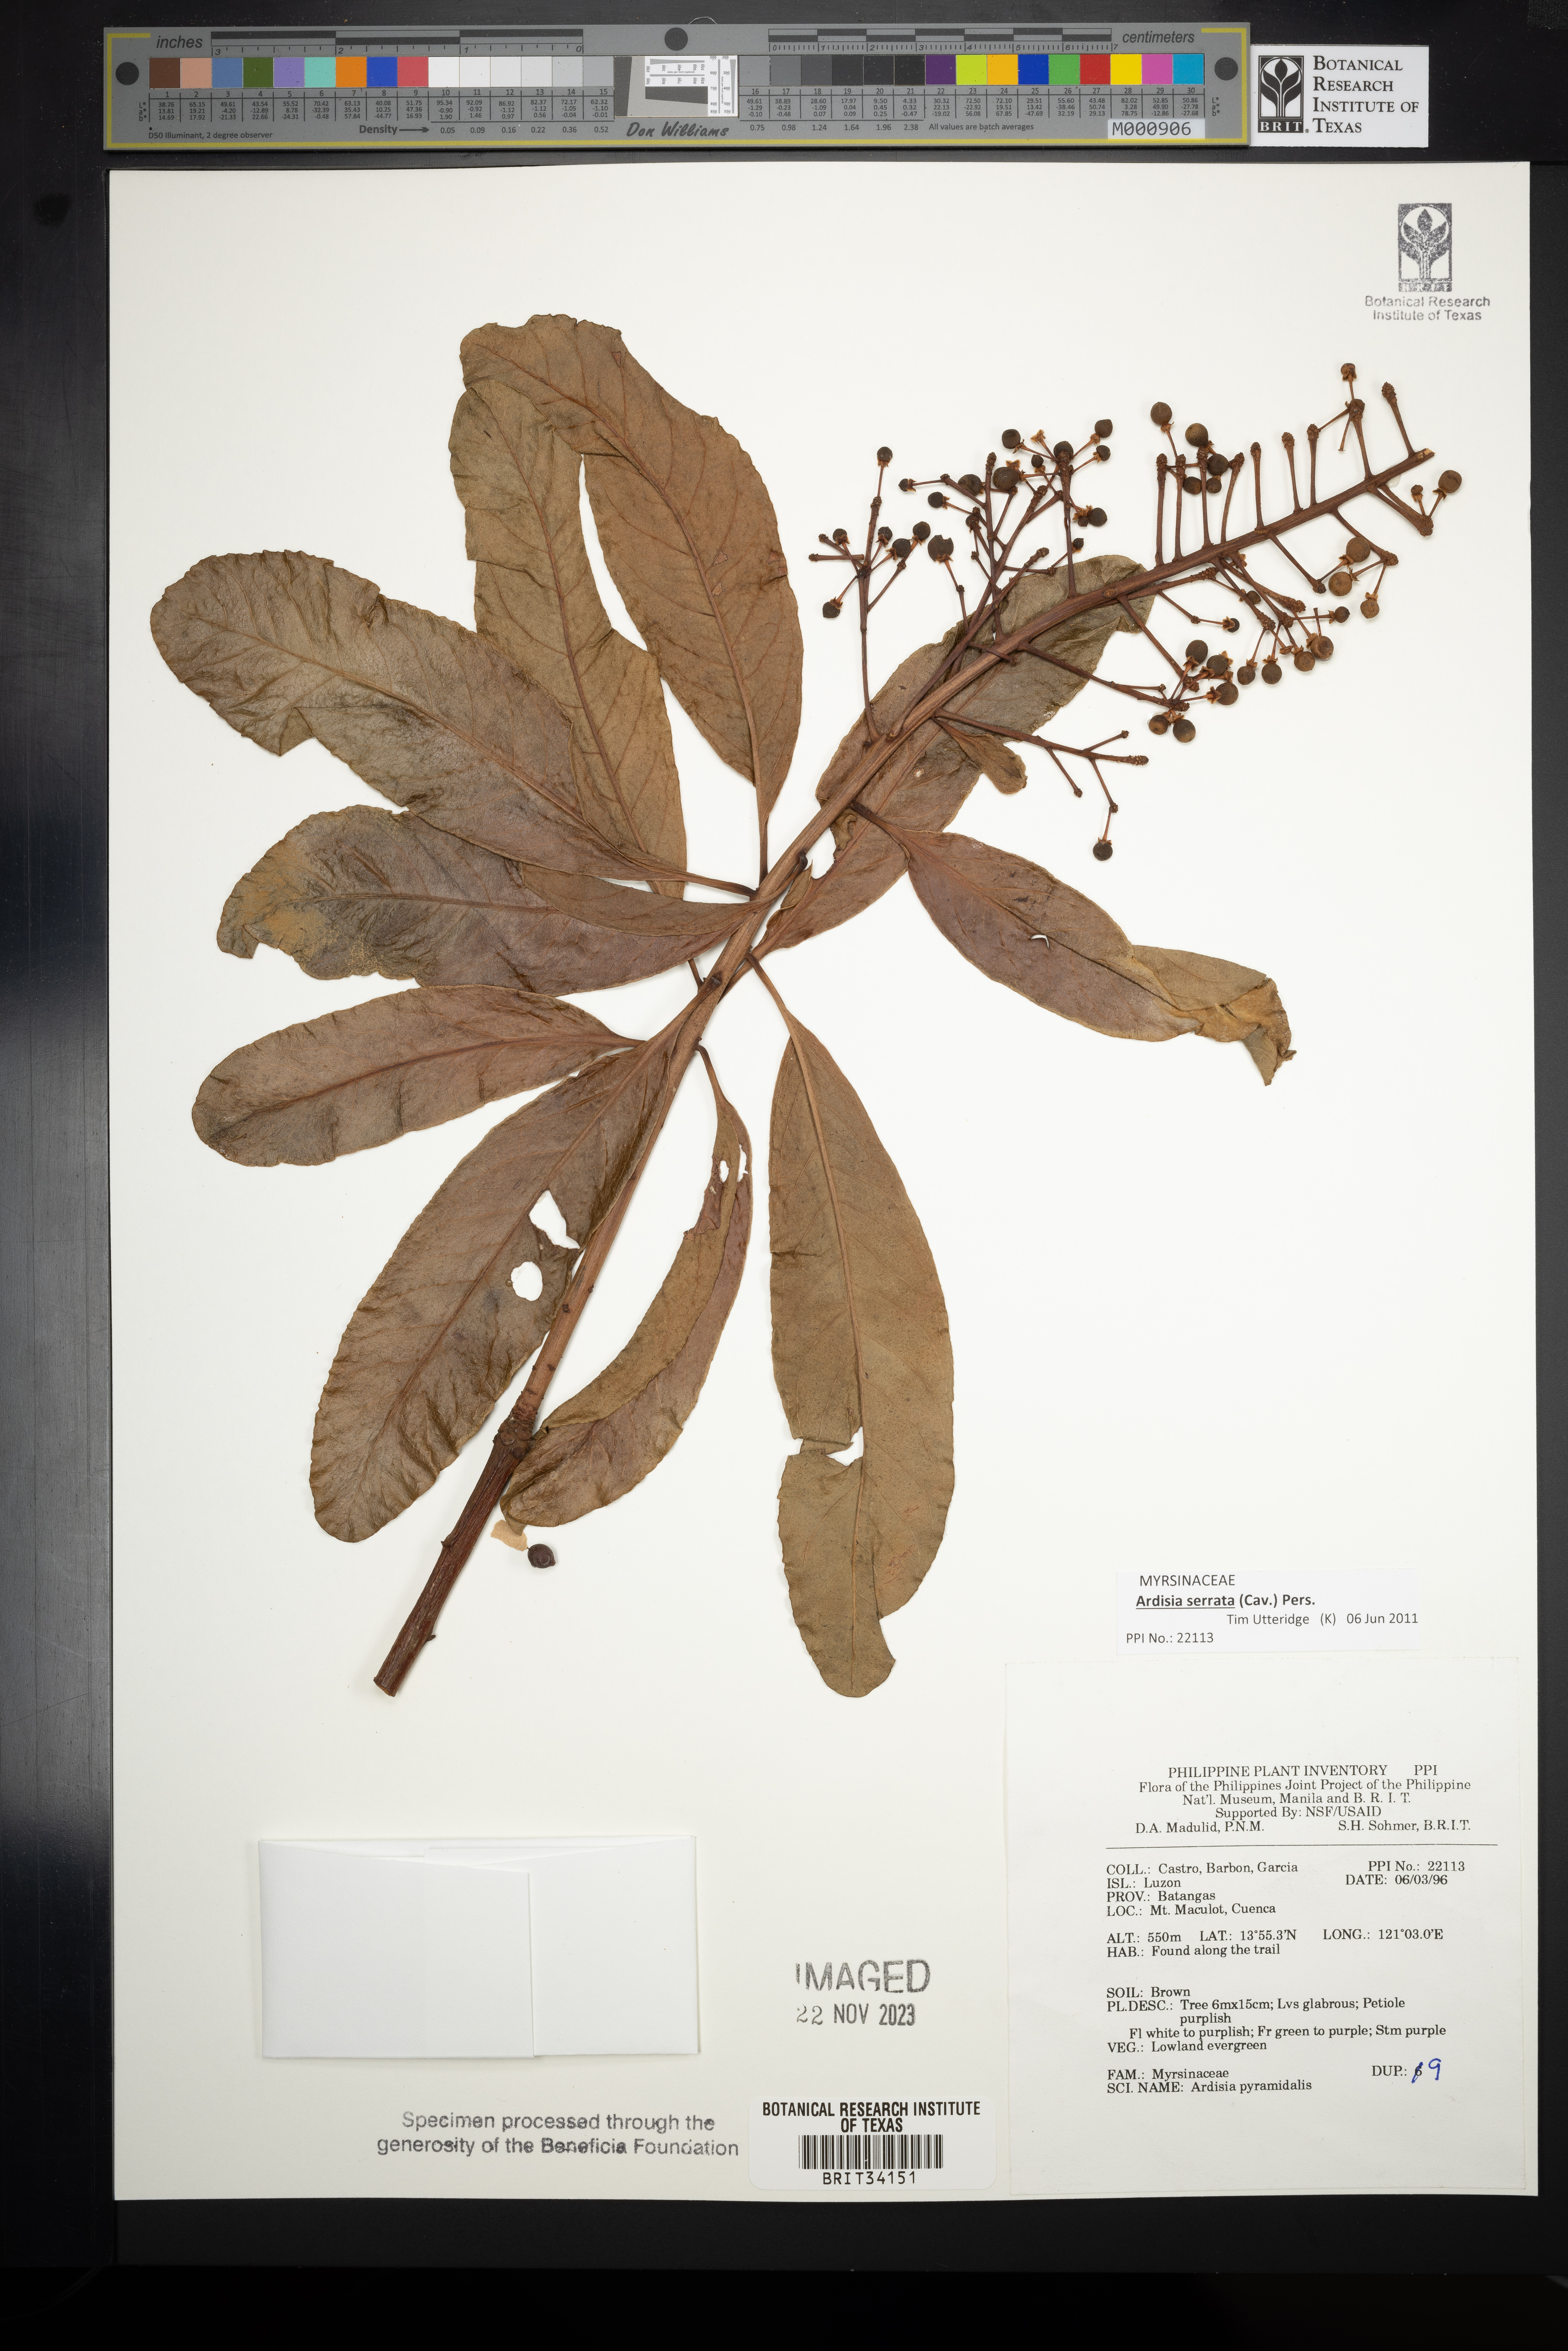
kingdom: Plantae
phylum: Tracheophyta
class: Magnoliopsida
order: Ericales
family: Primulaceae
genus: Ardisia
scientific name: Ardisia pyramidalis
